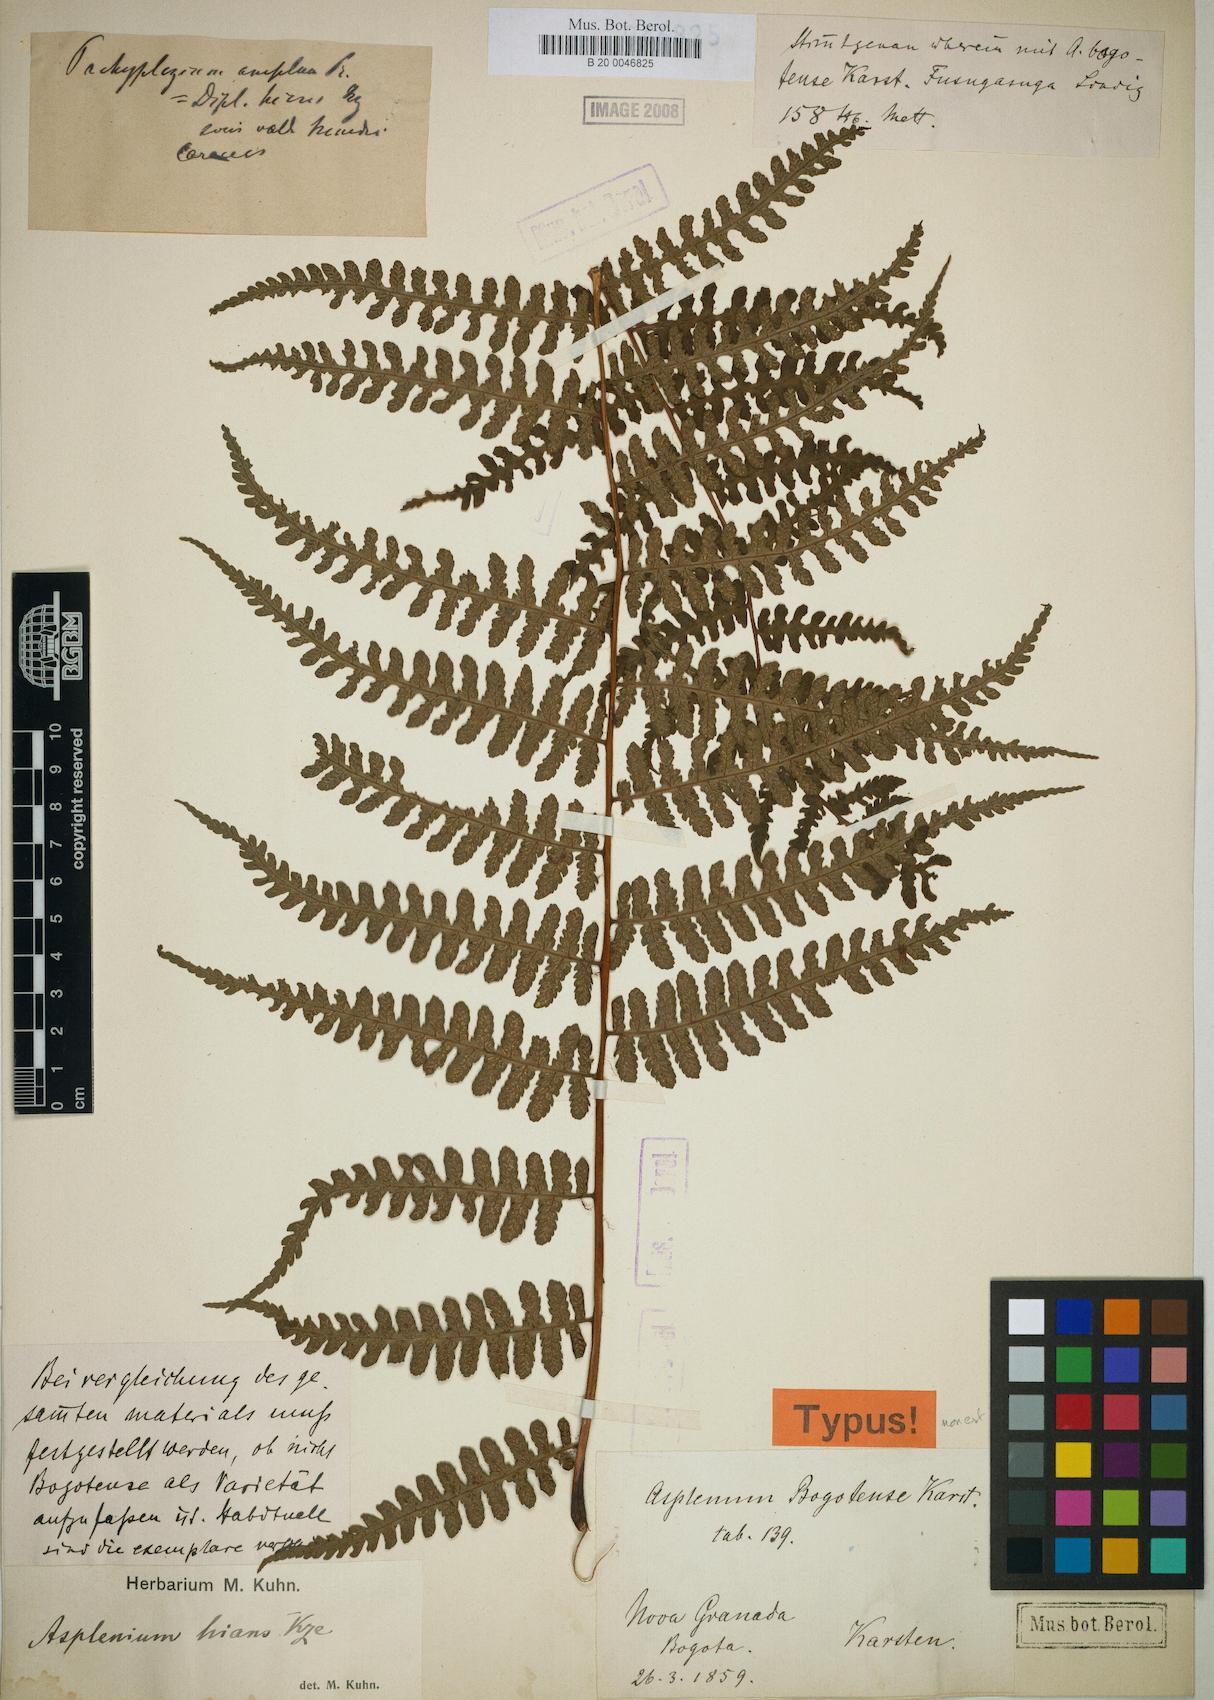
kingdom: Plantae
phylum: Tracheophyta
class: Polypodiopsida
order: Polypodiales
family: Athyriaceae
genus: Diplazium
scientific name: Diplazium bogotense
